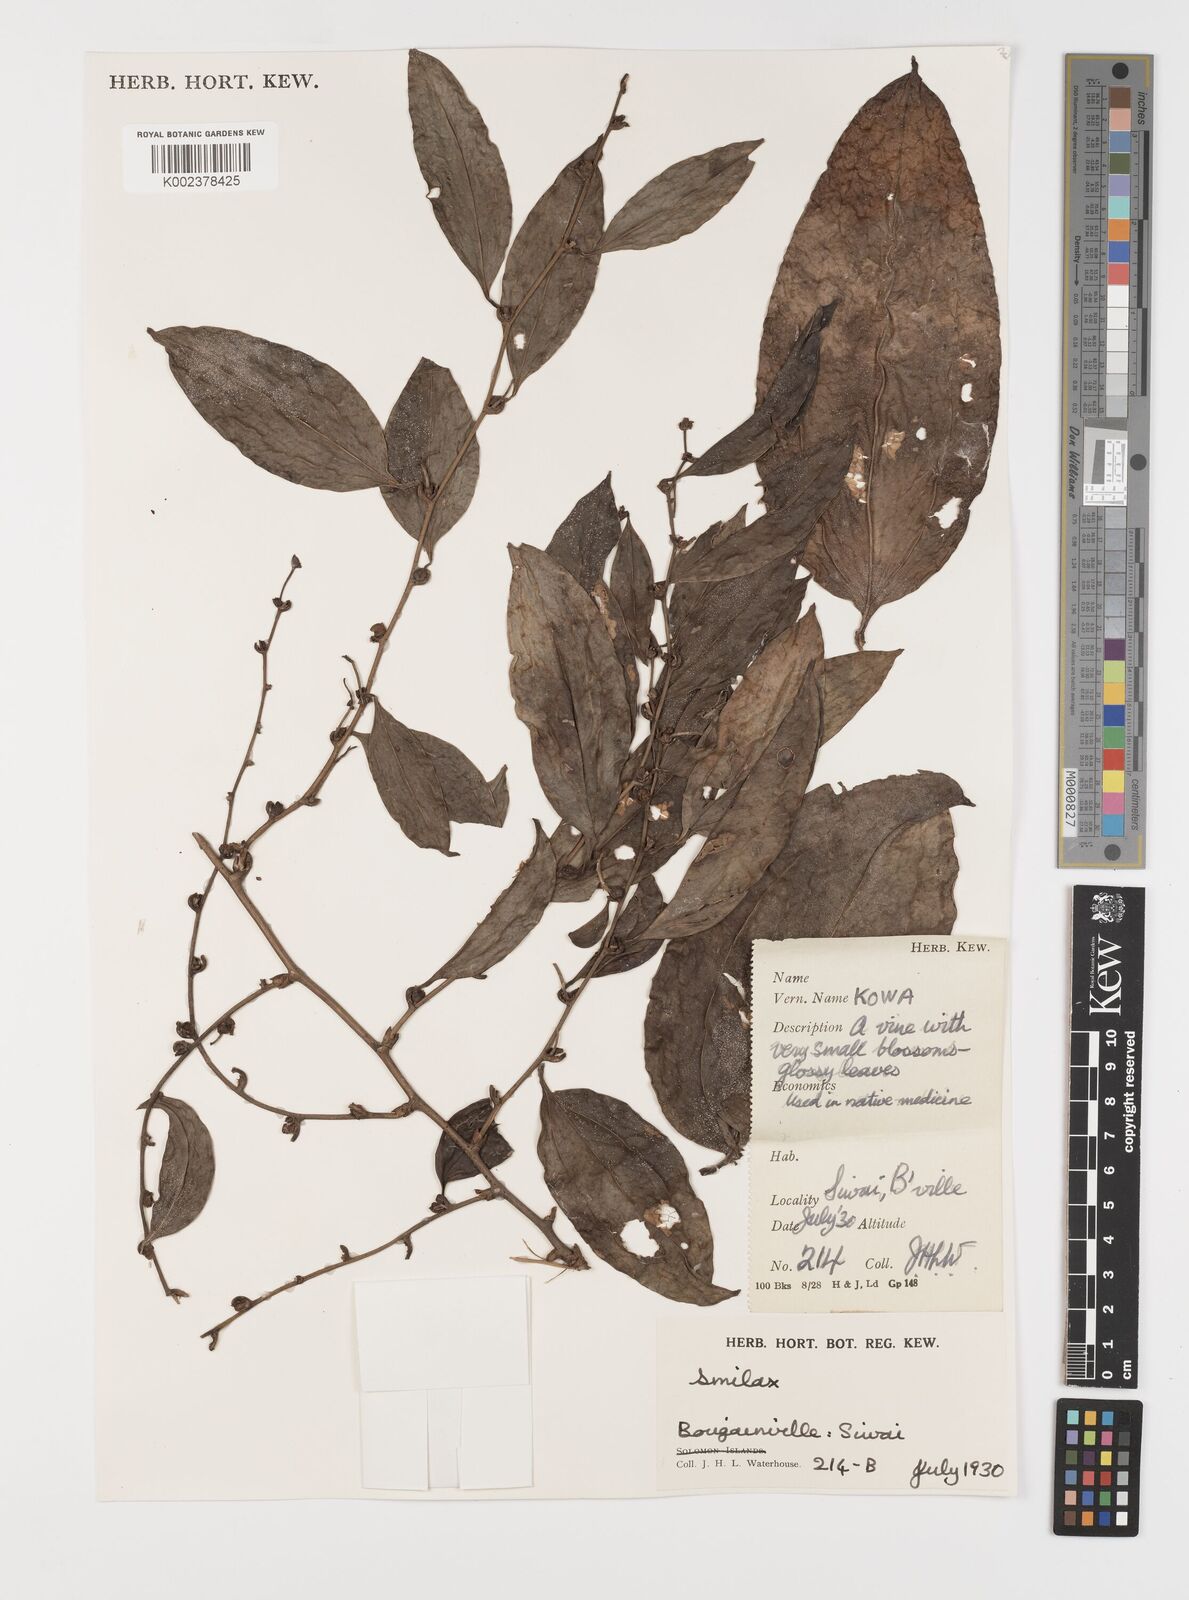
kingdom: Plantae
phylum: Tracheophyta
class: Liliopsida
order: Liliales
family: Smilacaceae
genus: Smilax
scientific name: Smilax
